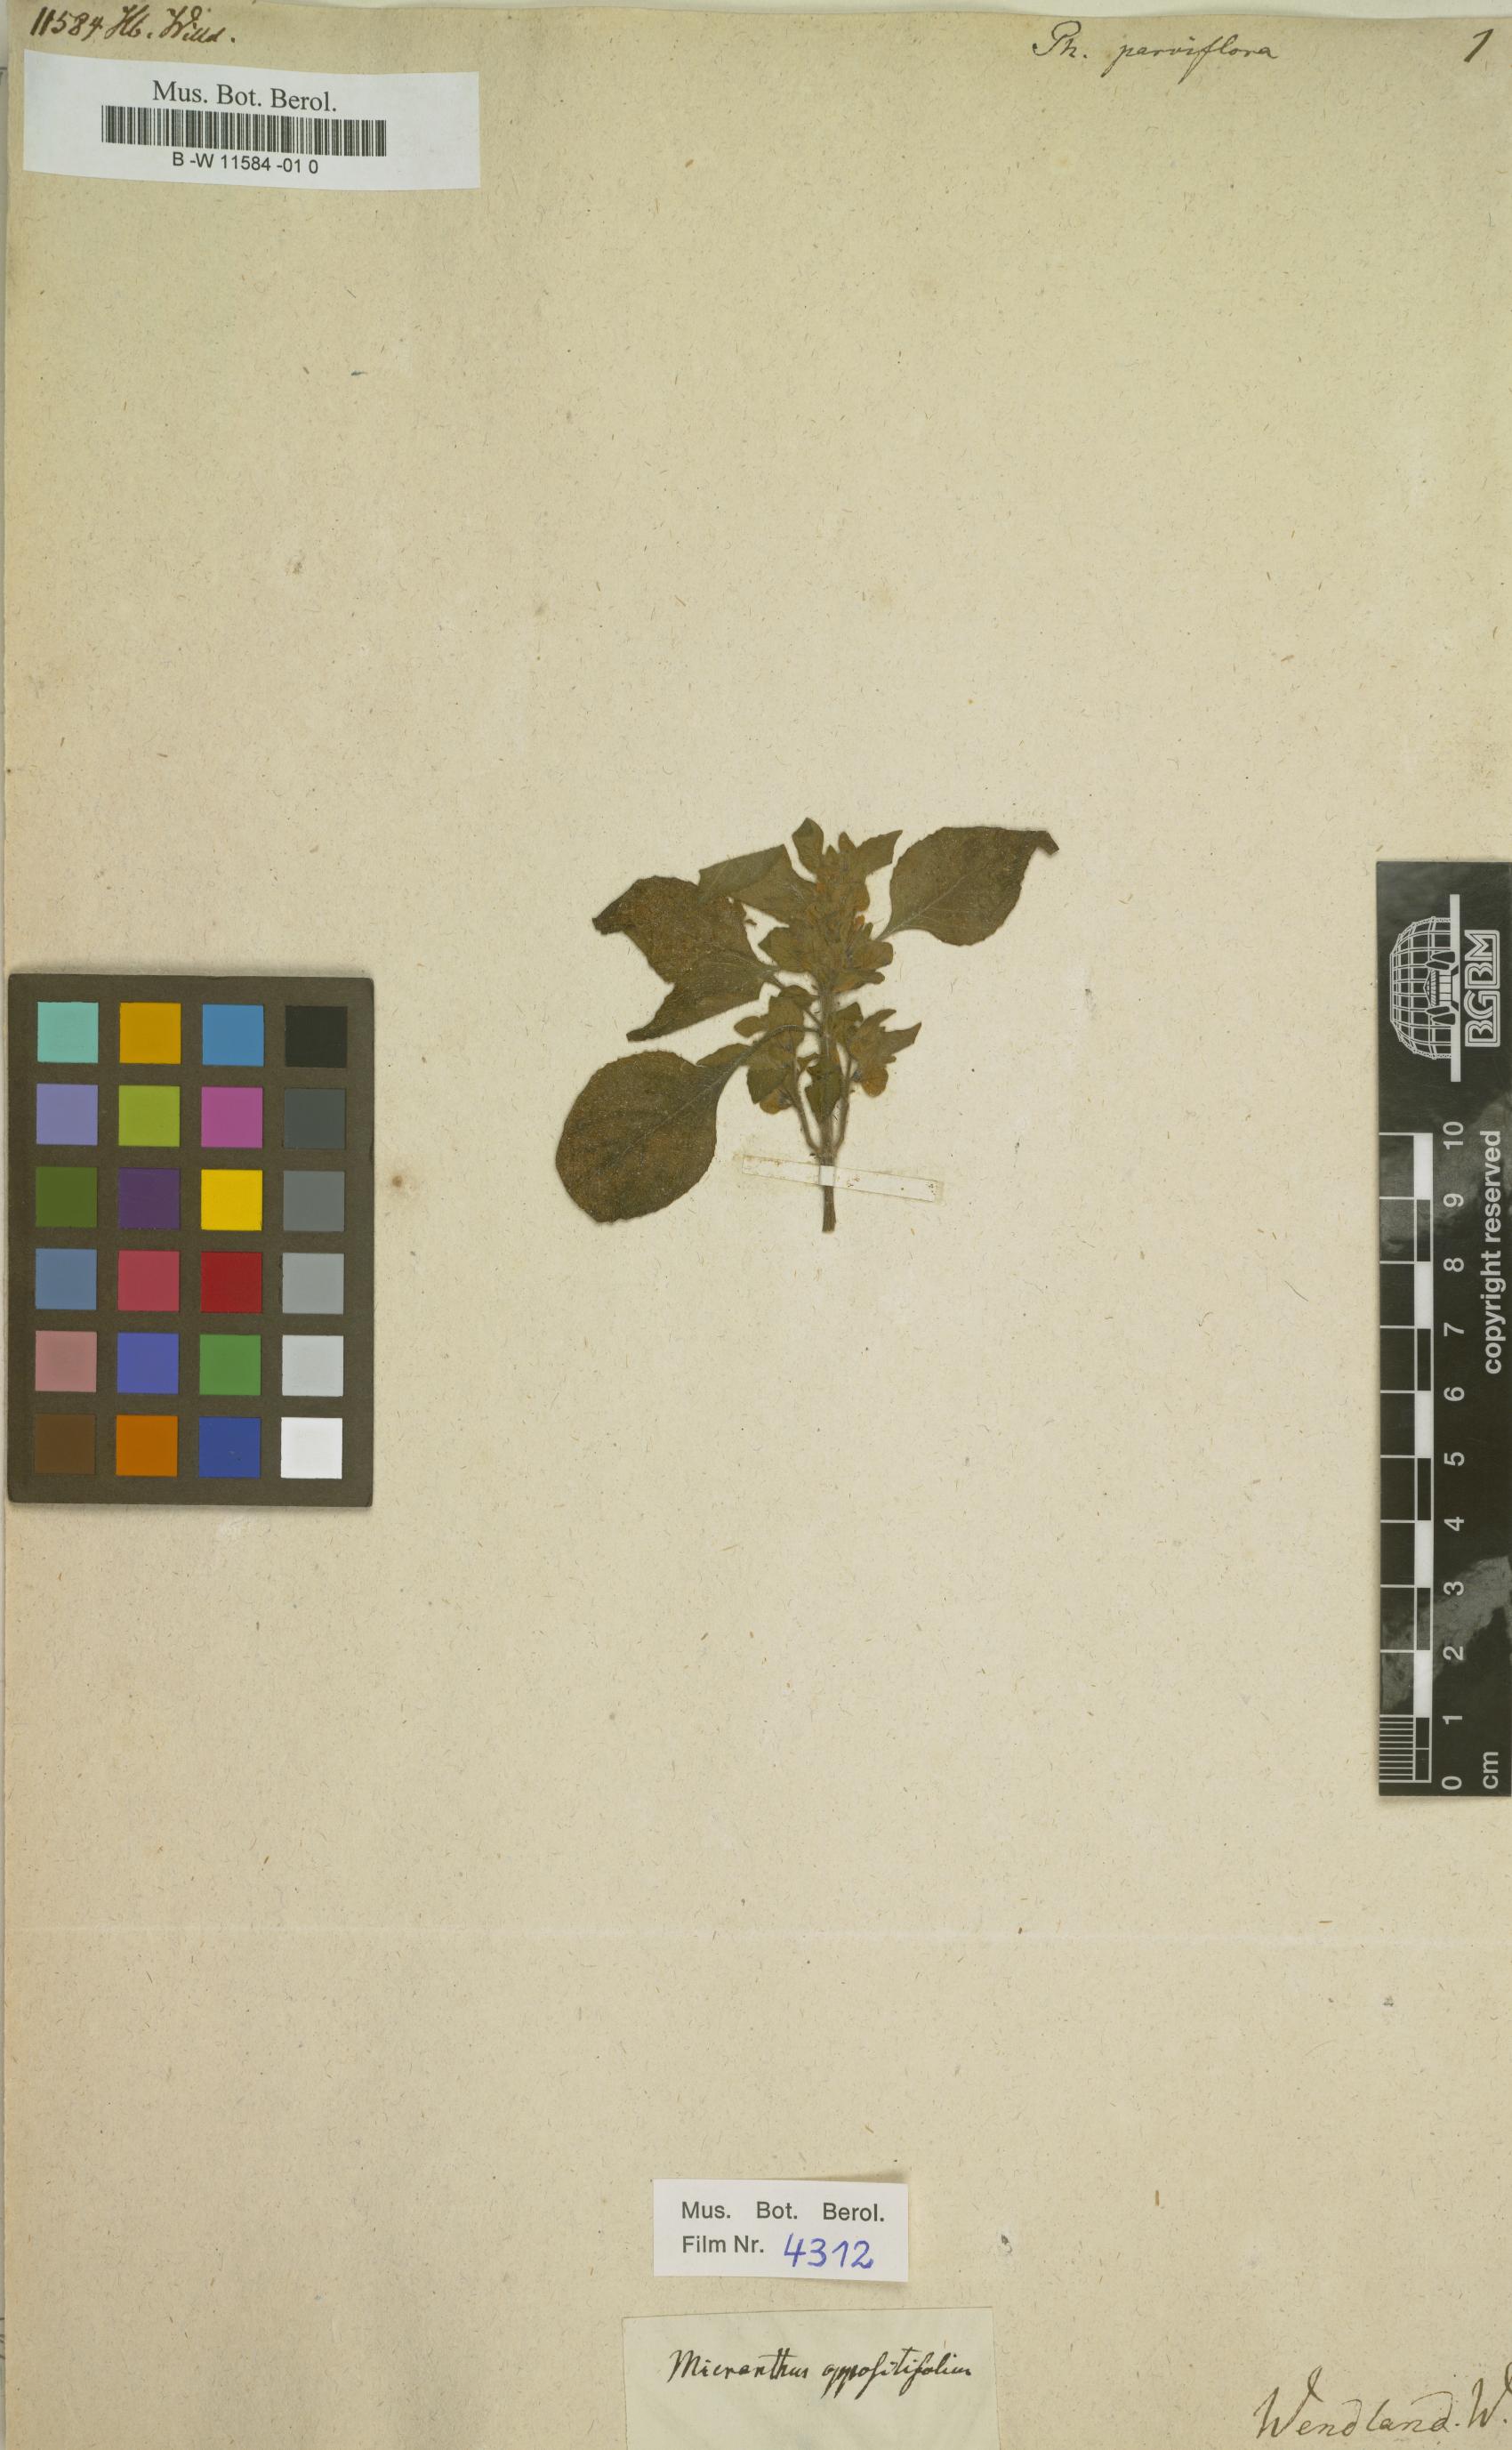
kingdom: Plantae
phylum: Tracheophyta
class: Magnoliopsida
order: Lamiales
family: Acanthaceae
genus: Phaulopsis
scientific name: Phaulopsis dorsiflora
